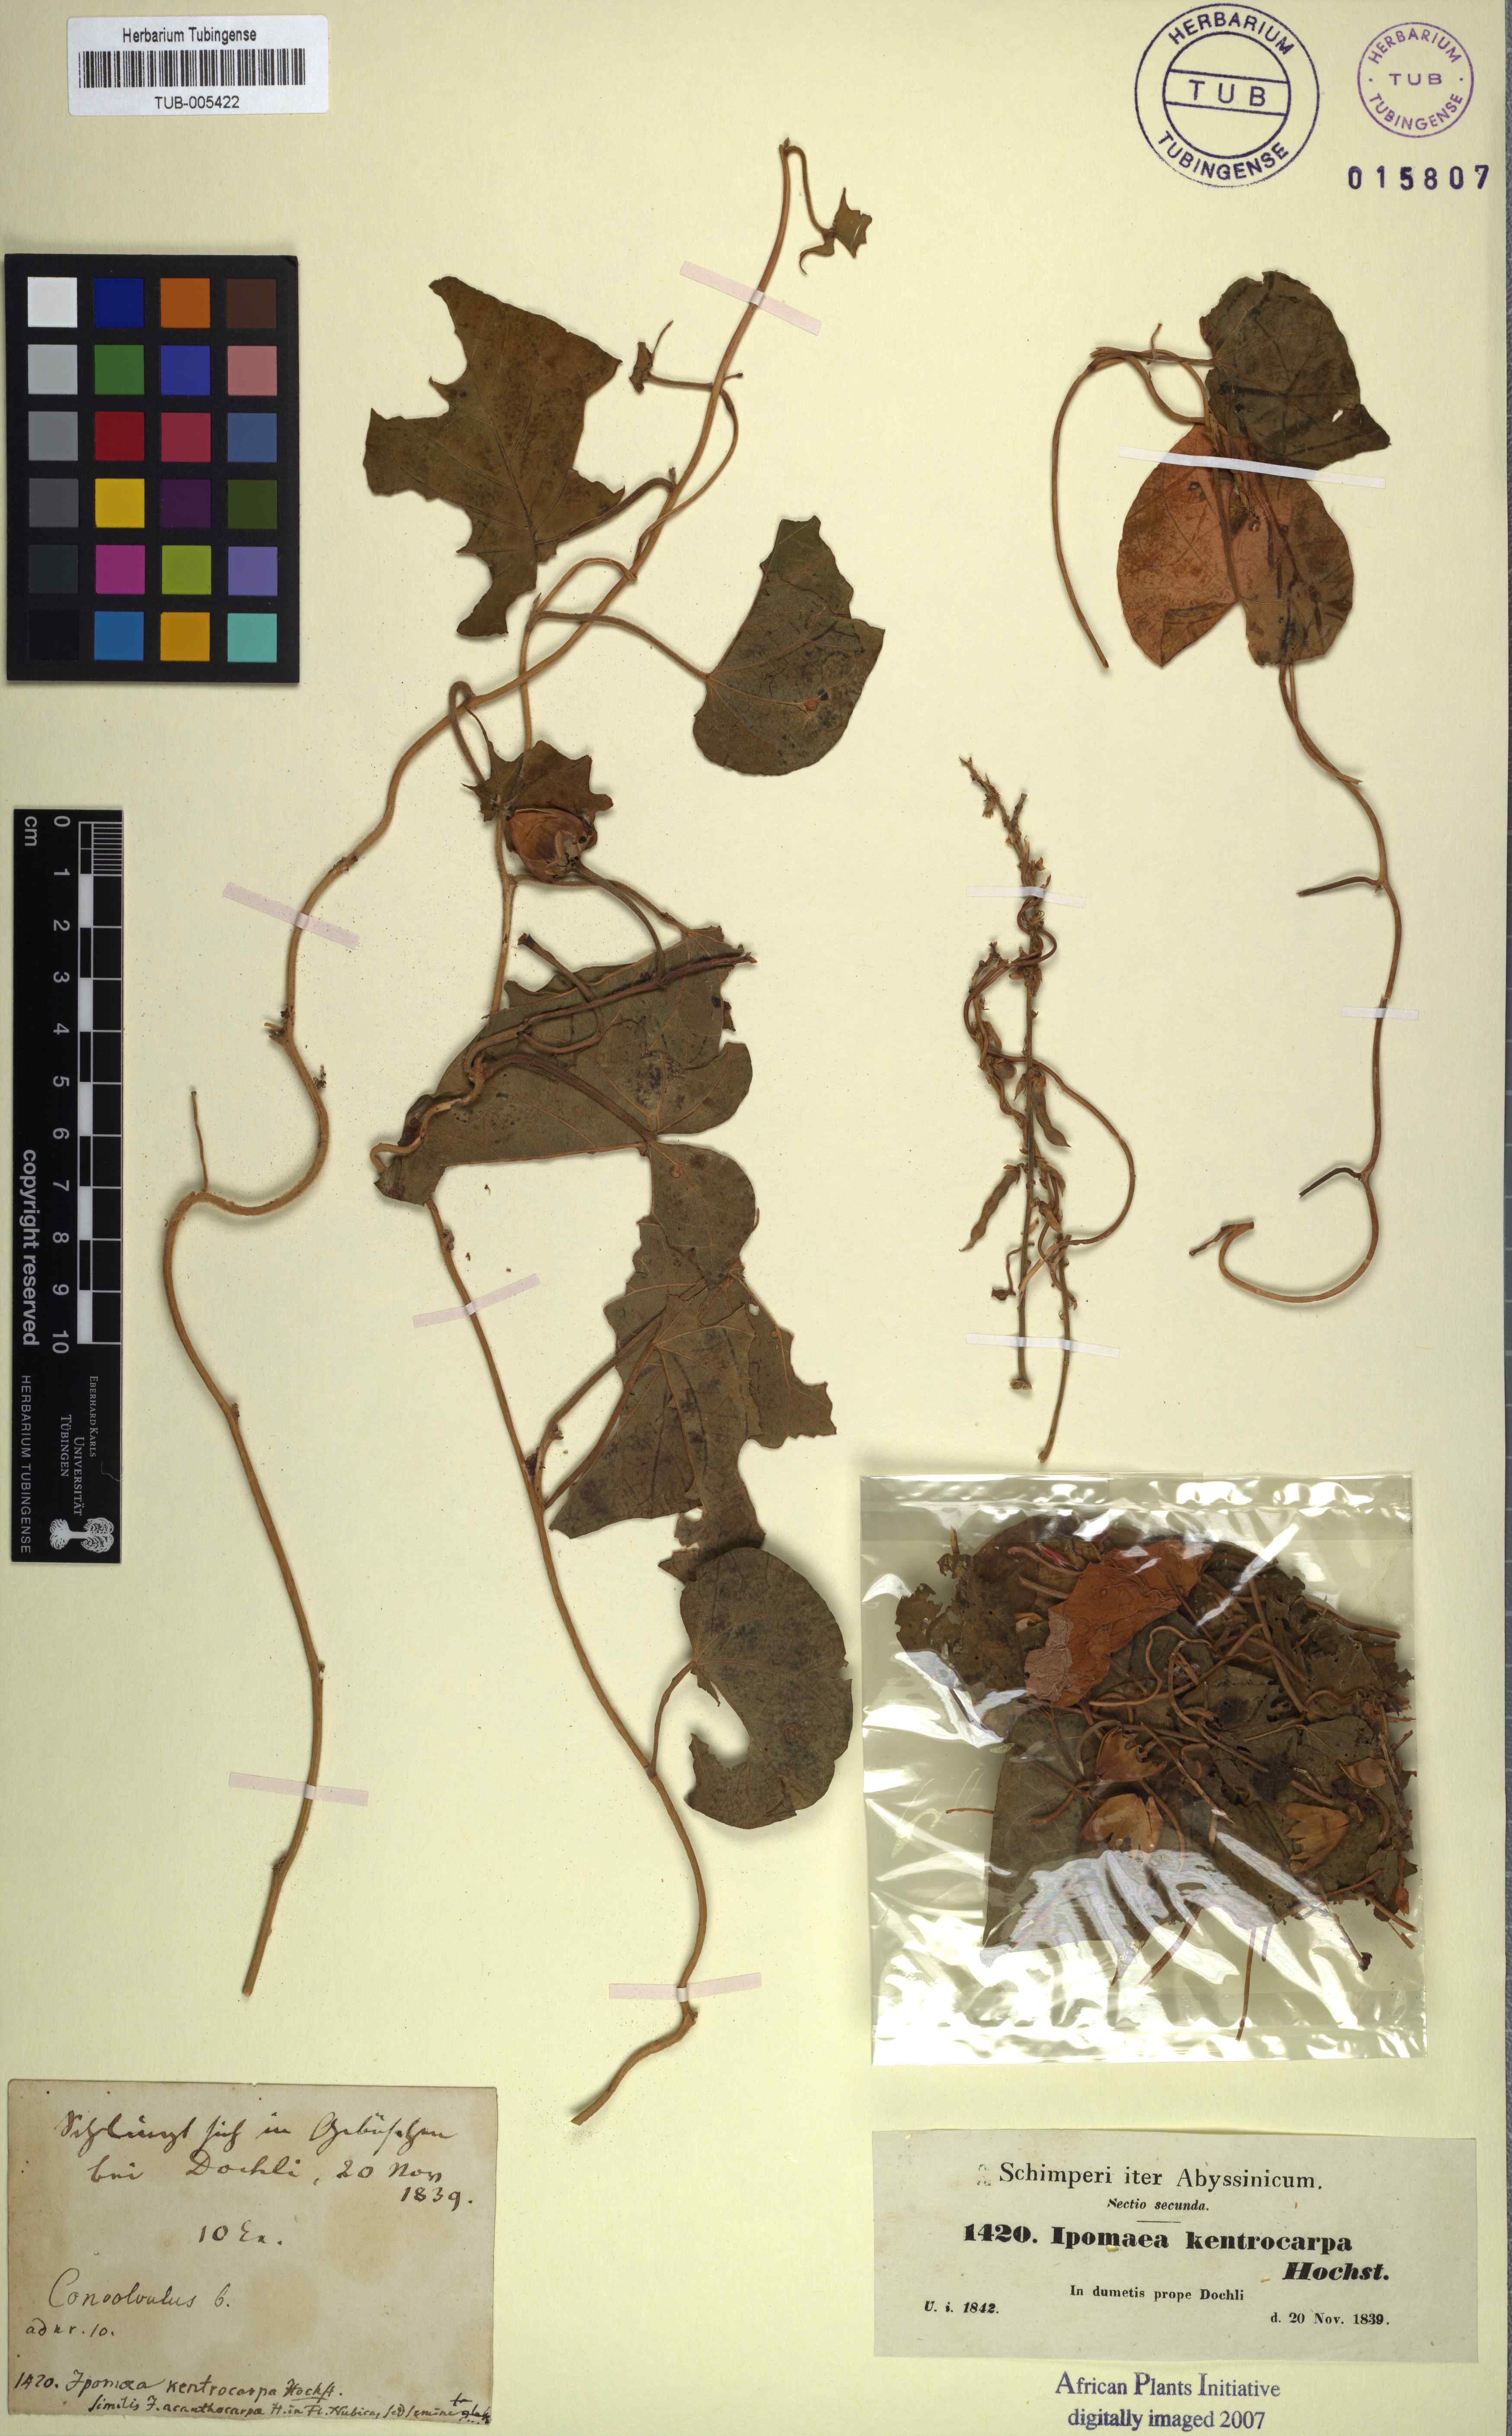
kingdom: Plantae
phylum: Tracheophyta
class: Magnoliopsida
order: Solanales
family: Convolvulaceae
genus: Ipomoea
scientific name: Ipomoea ochracea
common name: Fence morning-glory
